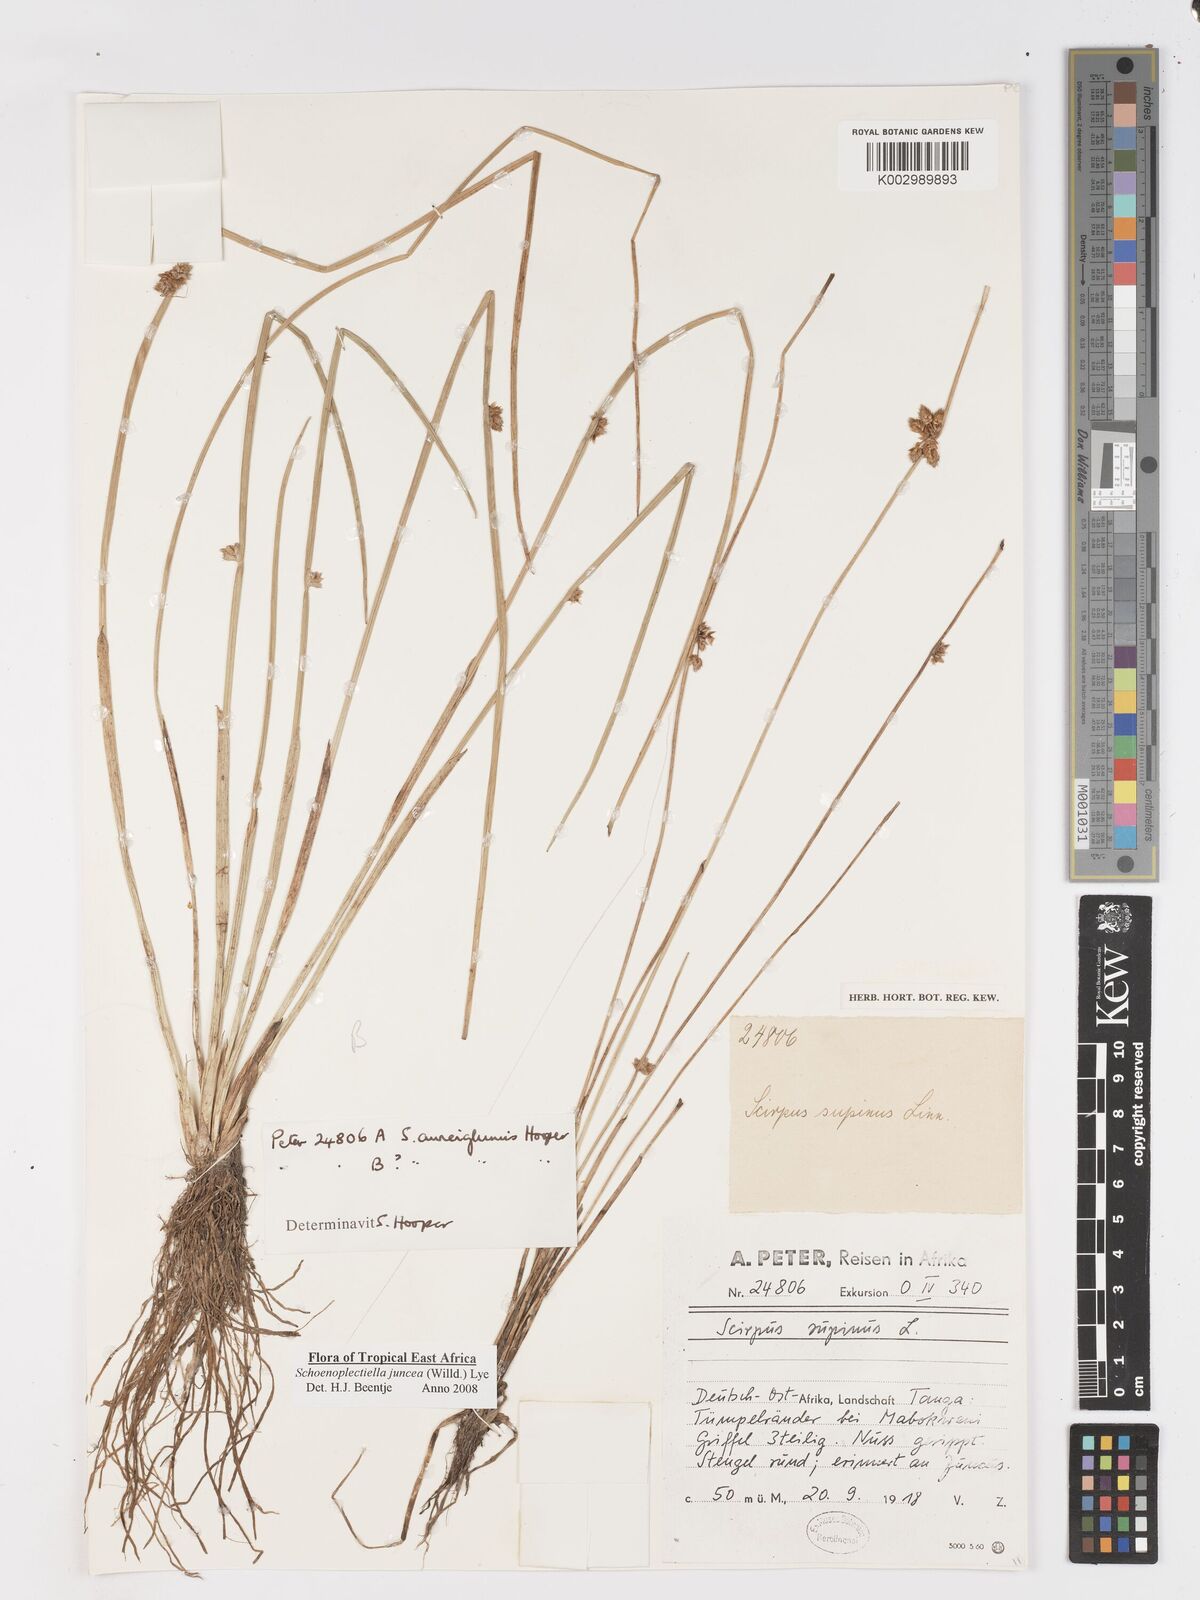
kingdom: Plantae
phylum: Tracheophyta
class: Liliopsida
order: Poales
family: Cyperaceae
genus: Schoenoplectiella
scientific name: Schoenoplectiella juncea
